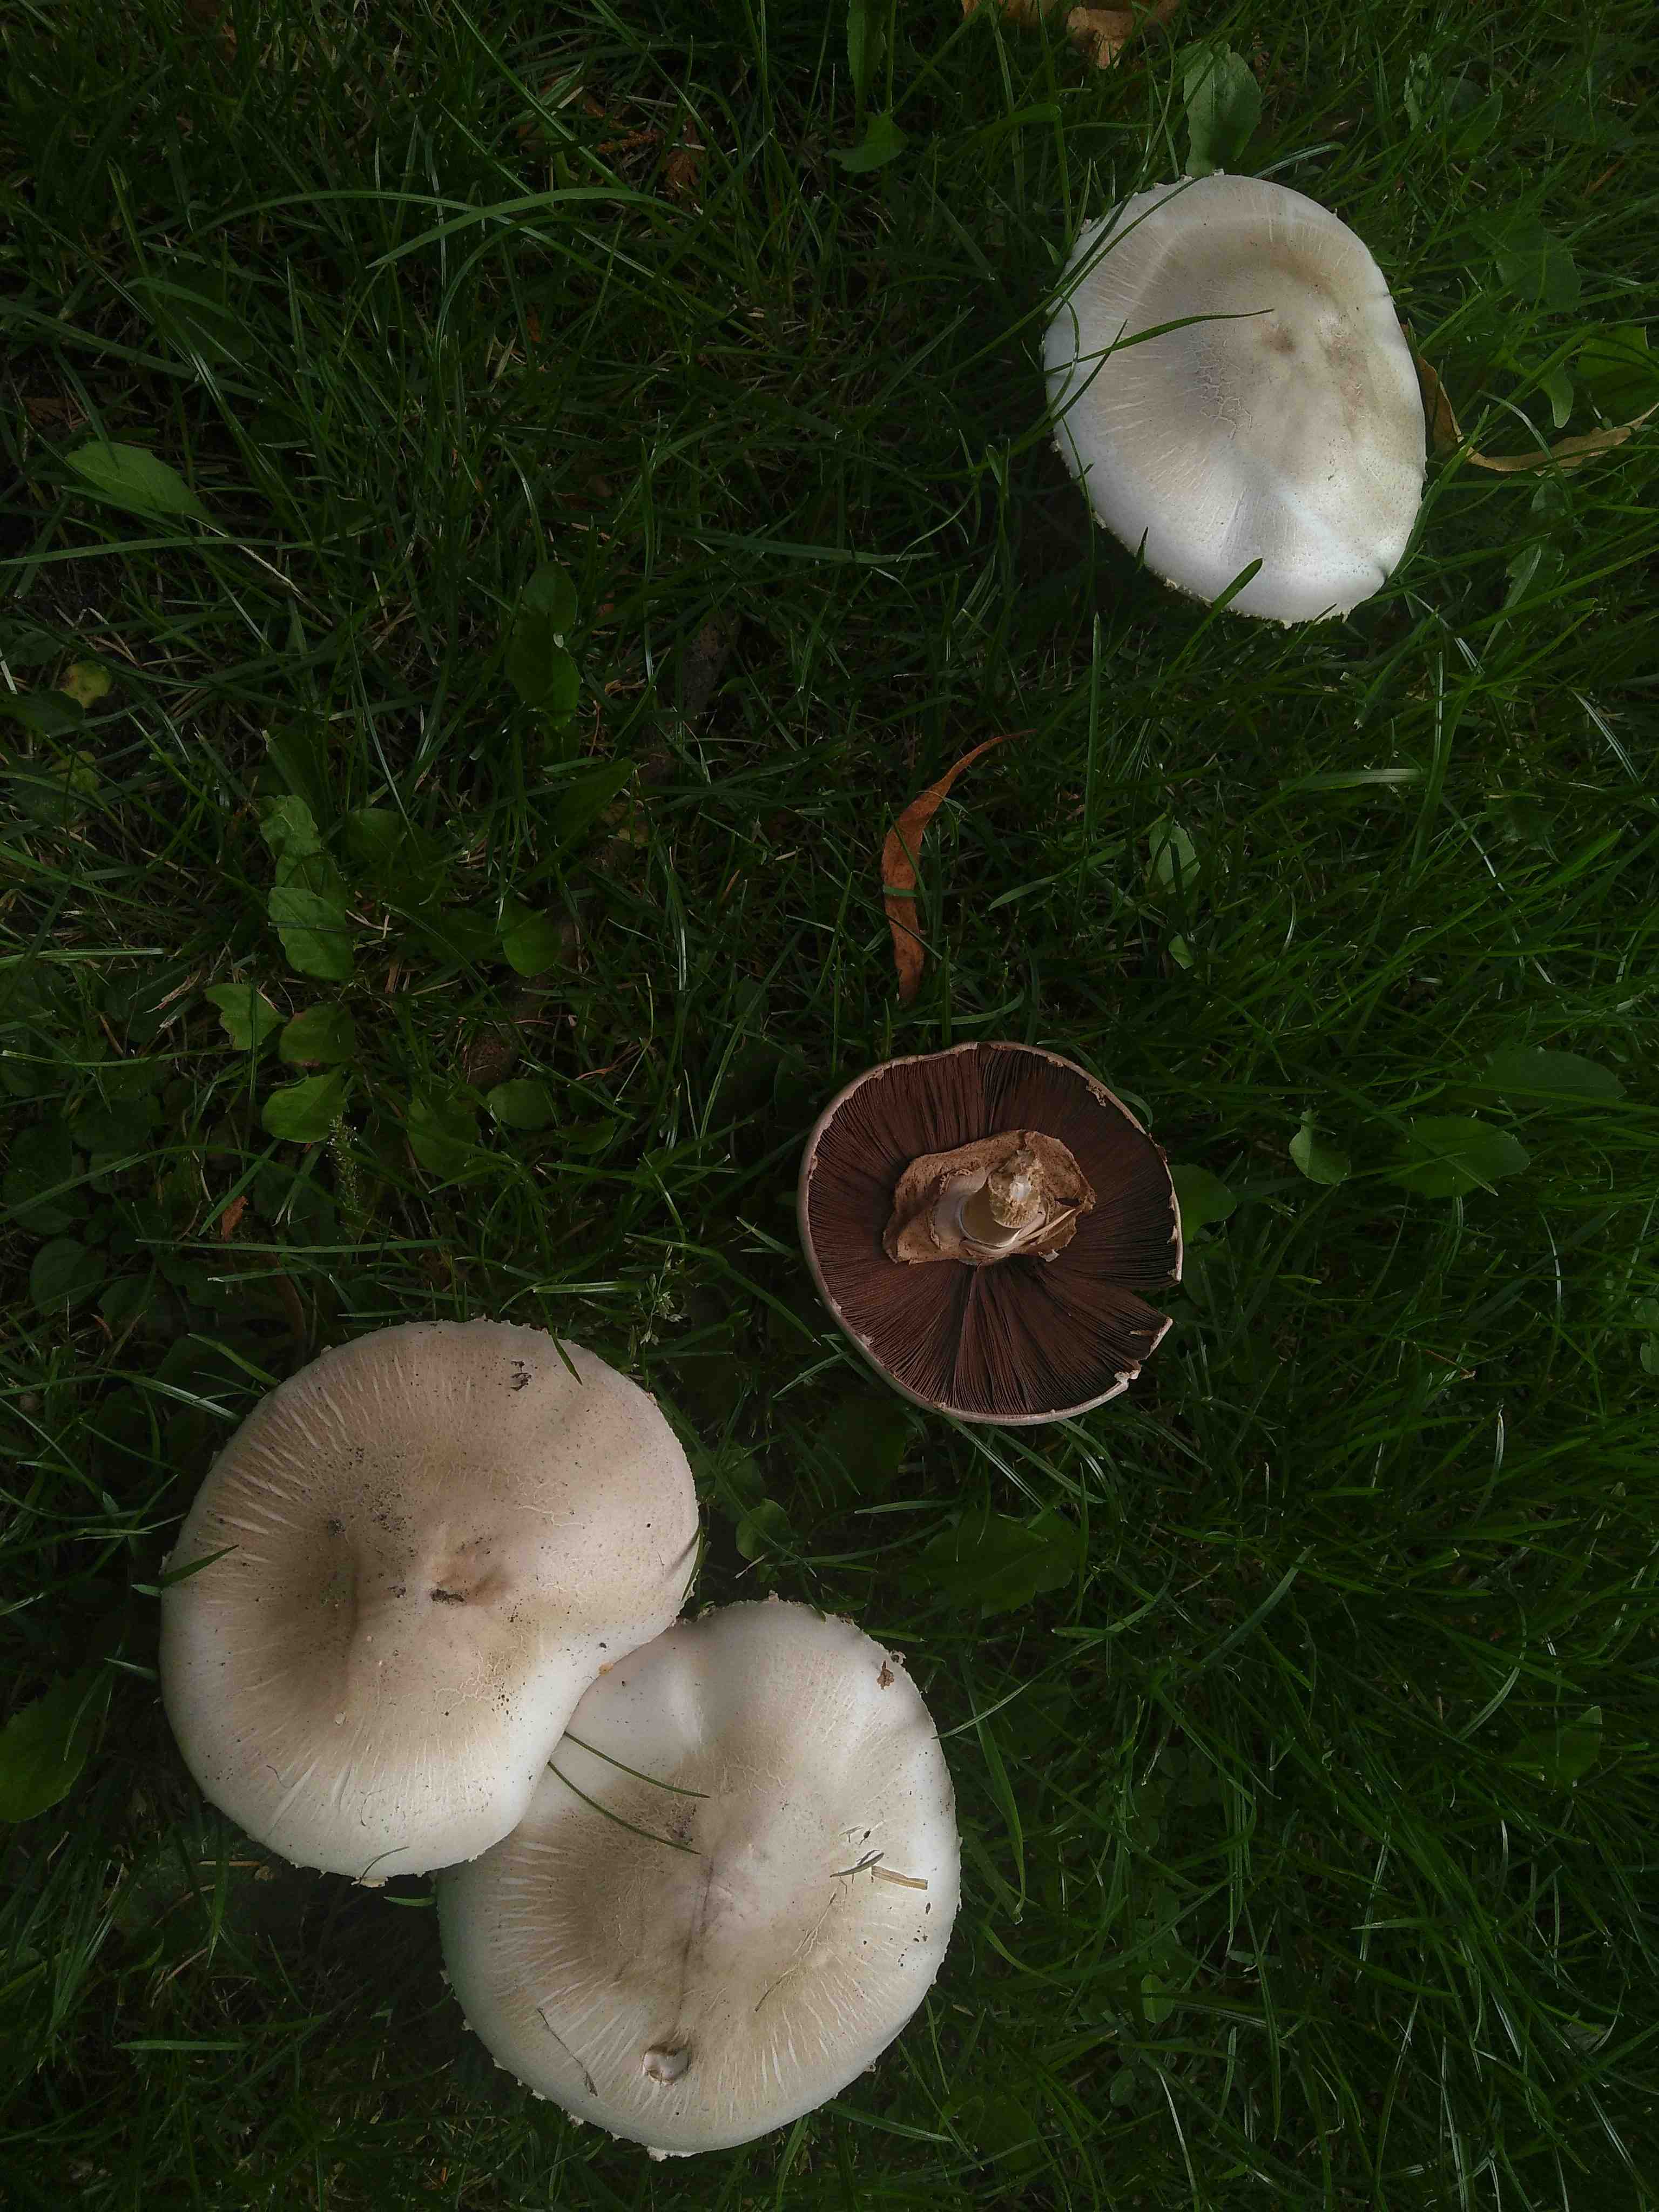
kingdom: Fungi
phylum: Basidiomycota
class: Agaricomycetes
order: Agaricales
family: Agaricaceae
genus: Agaricus
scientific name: Agaricus xanthodermus
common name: karbol-champignon
